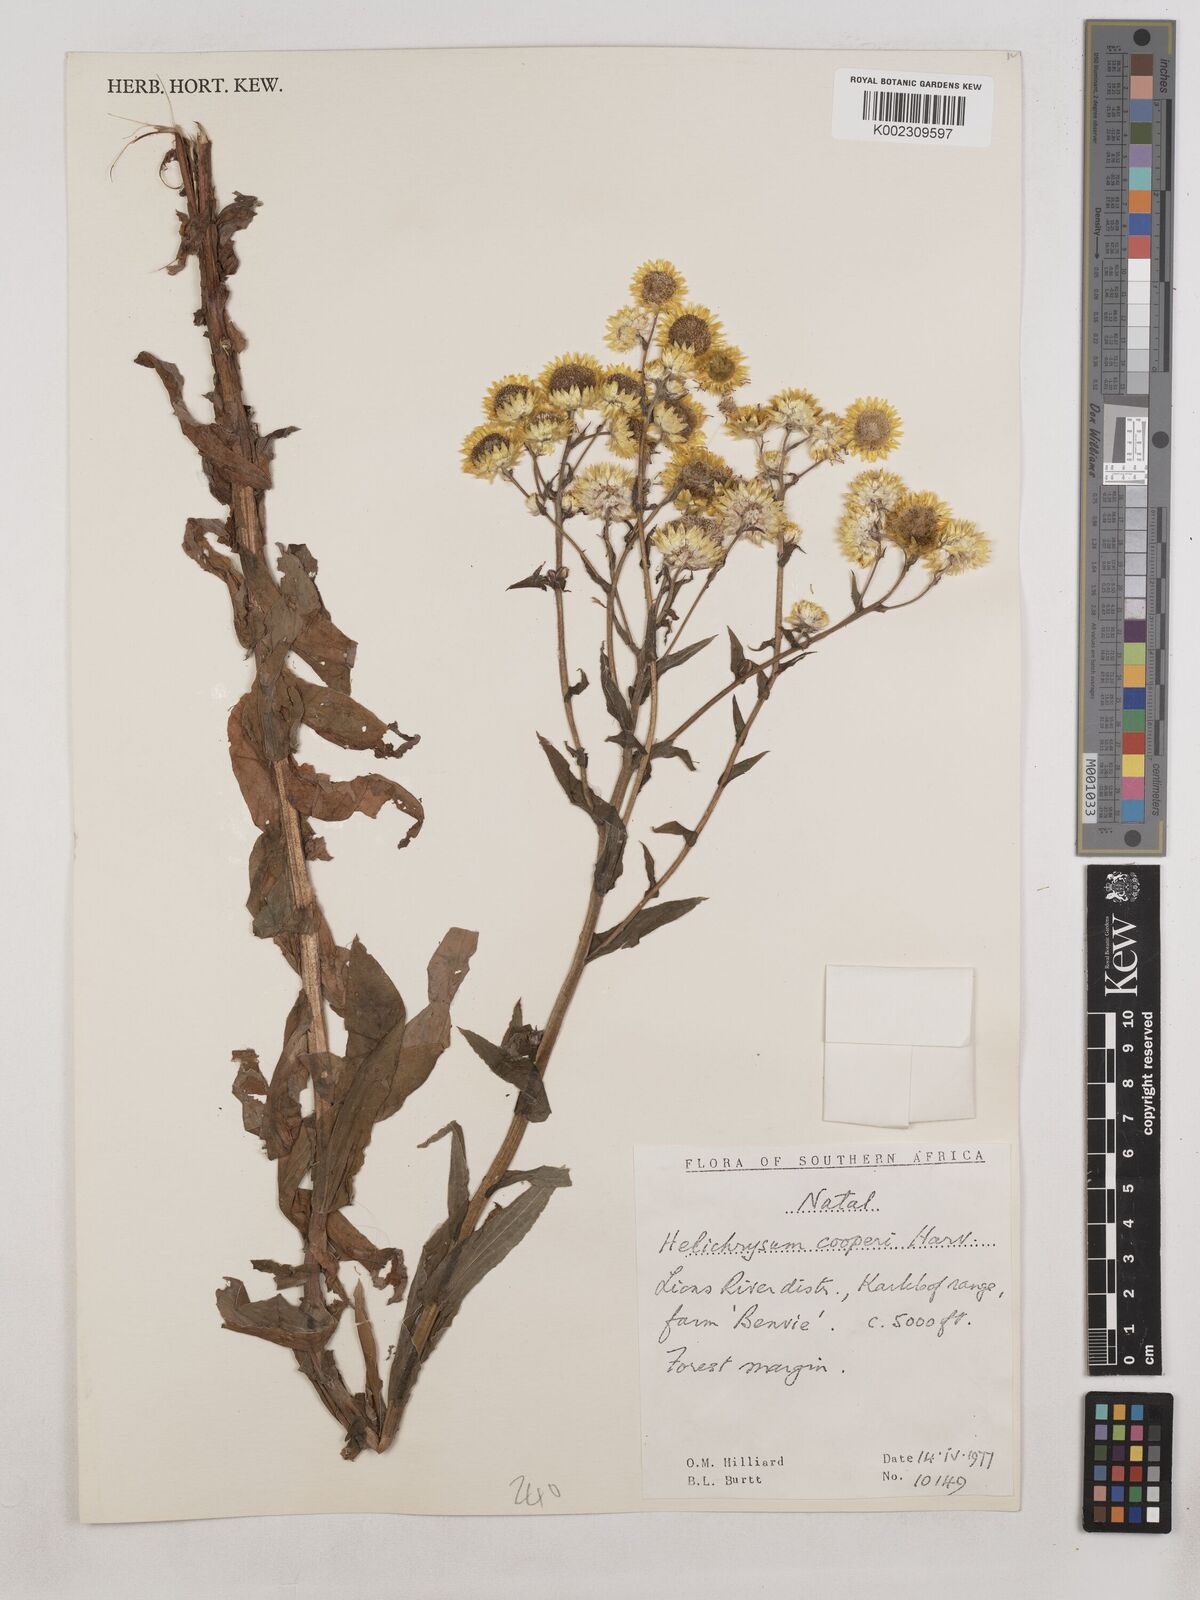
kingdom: Plantae
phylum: Tracheophyta
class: Magnoliopsida
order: Asterales
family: Asteraceae
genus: Helichrysum
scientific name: Helichrysum cooperi
